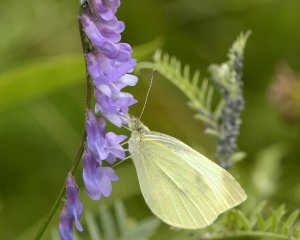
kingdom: Animalia
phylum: Arthropoda
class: Insecta
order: Lepidoptera
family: Pieridae
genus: Pieris
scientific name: Pieris rapae
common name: Cabbage White
